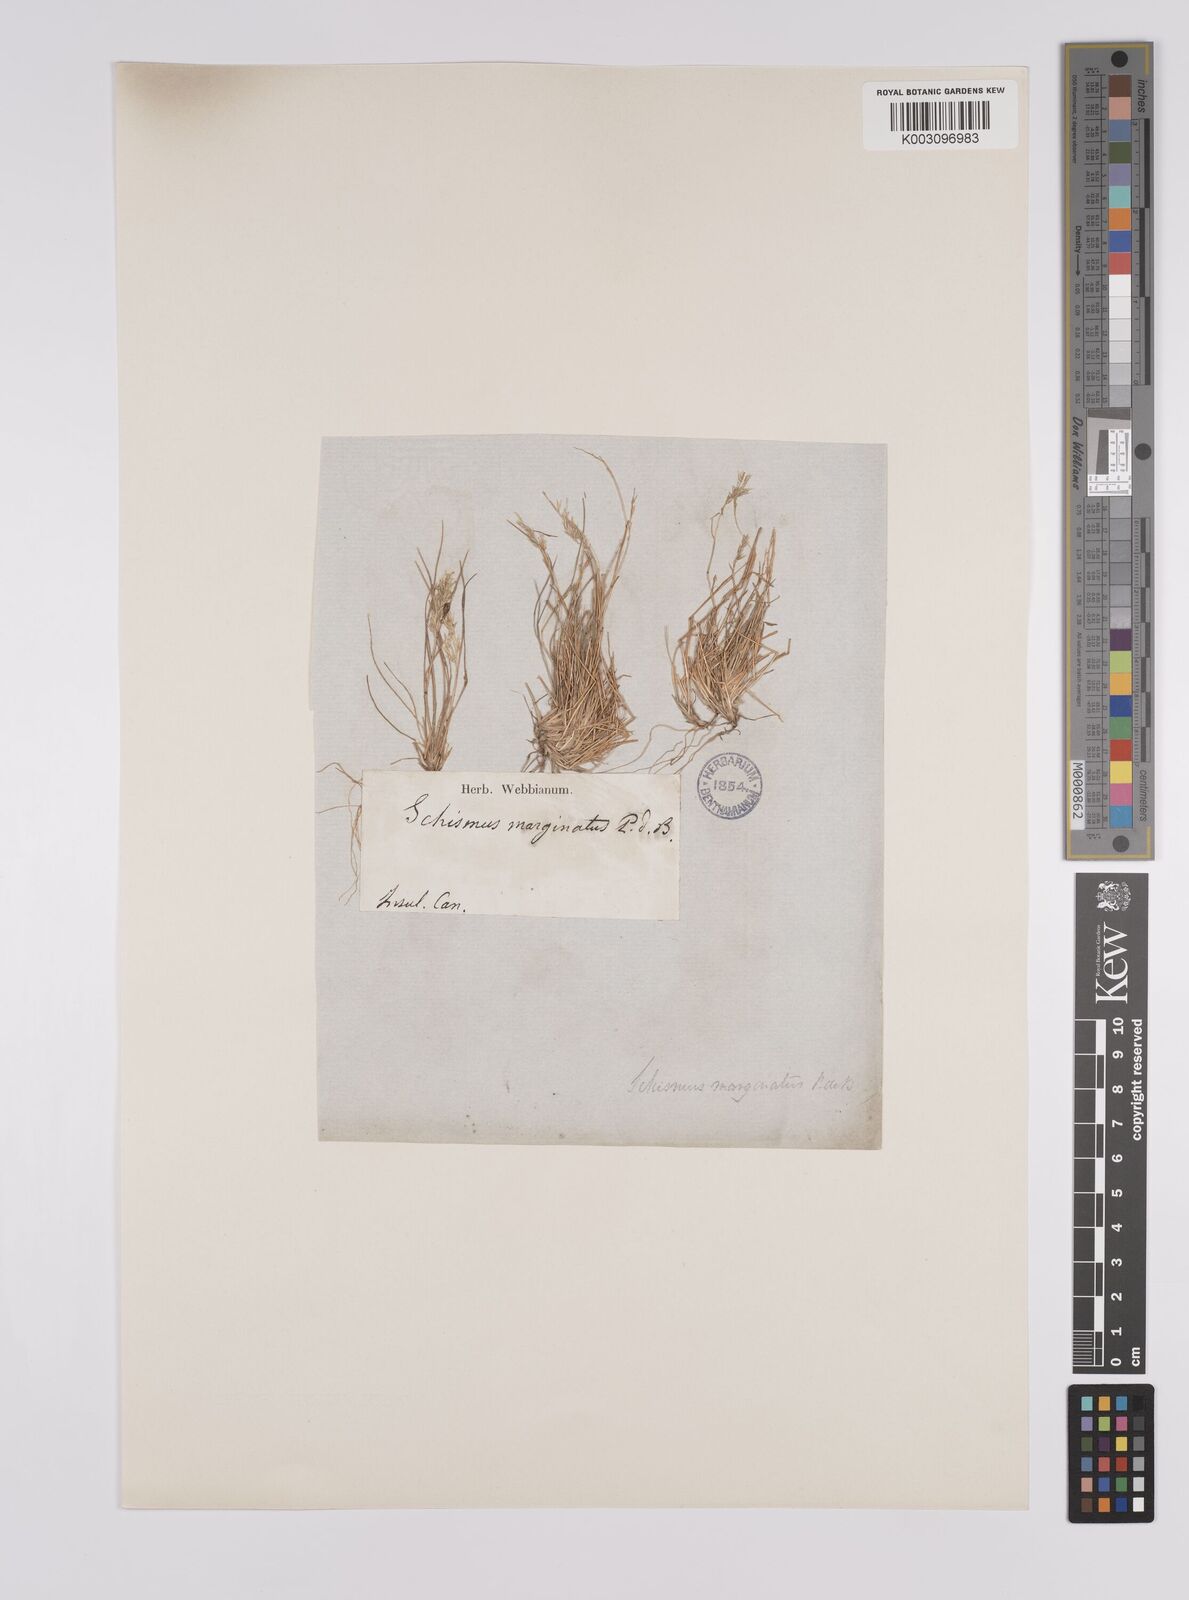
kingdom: Plantae
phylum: Tracheophyta
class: Liliopsida
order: Poales
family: Poaceae
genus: Schismus
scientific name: Schismus barbatus
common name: Kelch-grass
